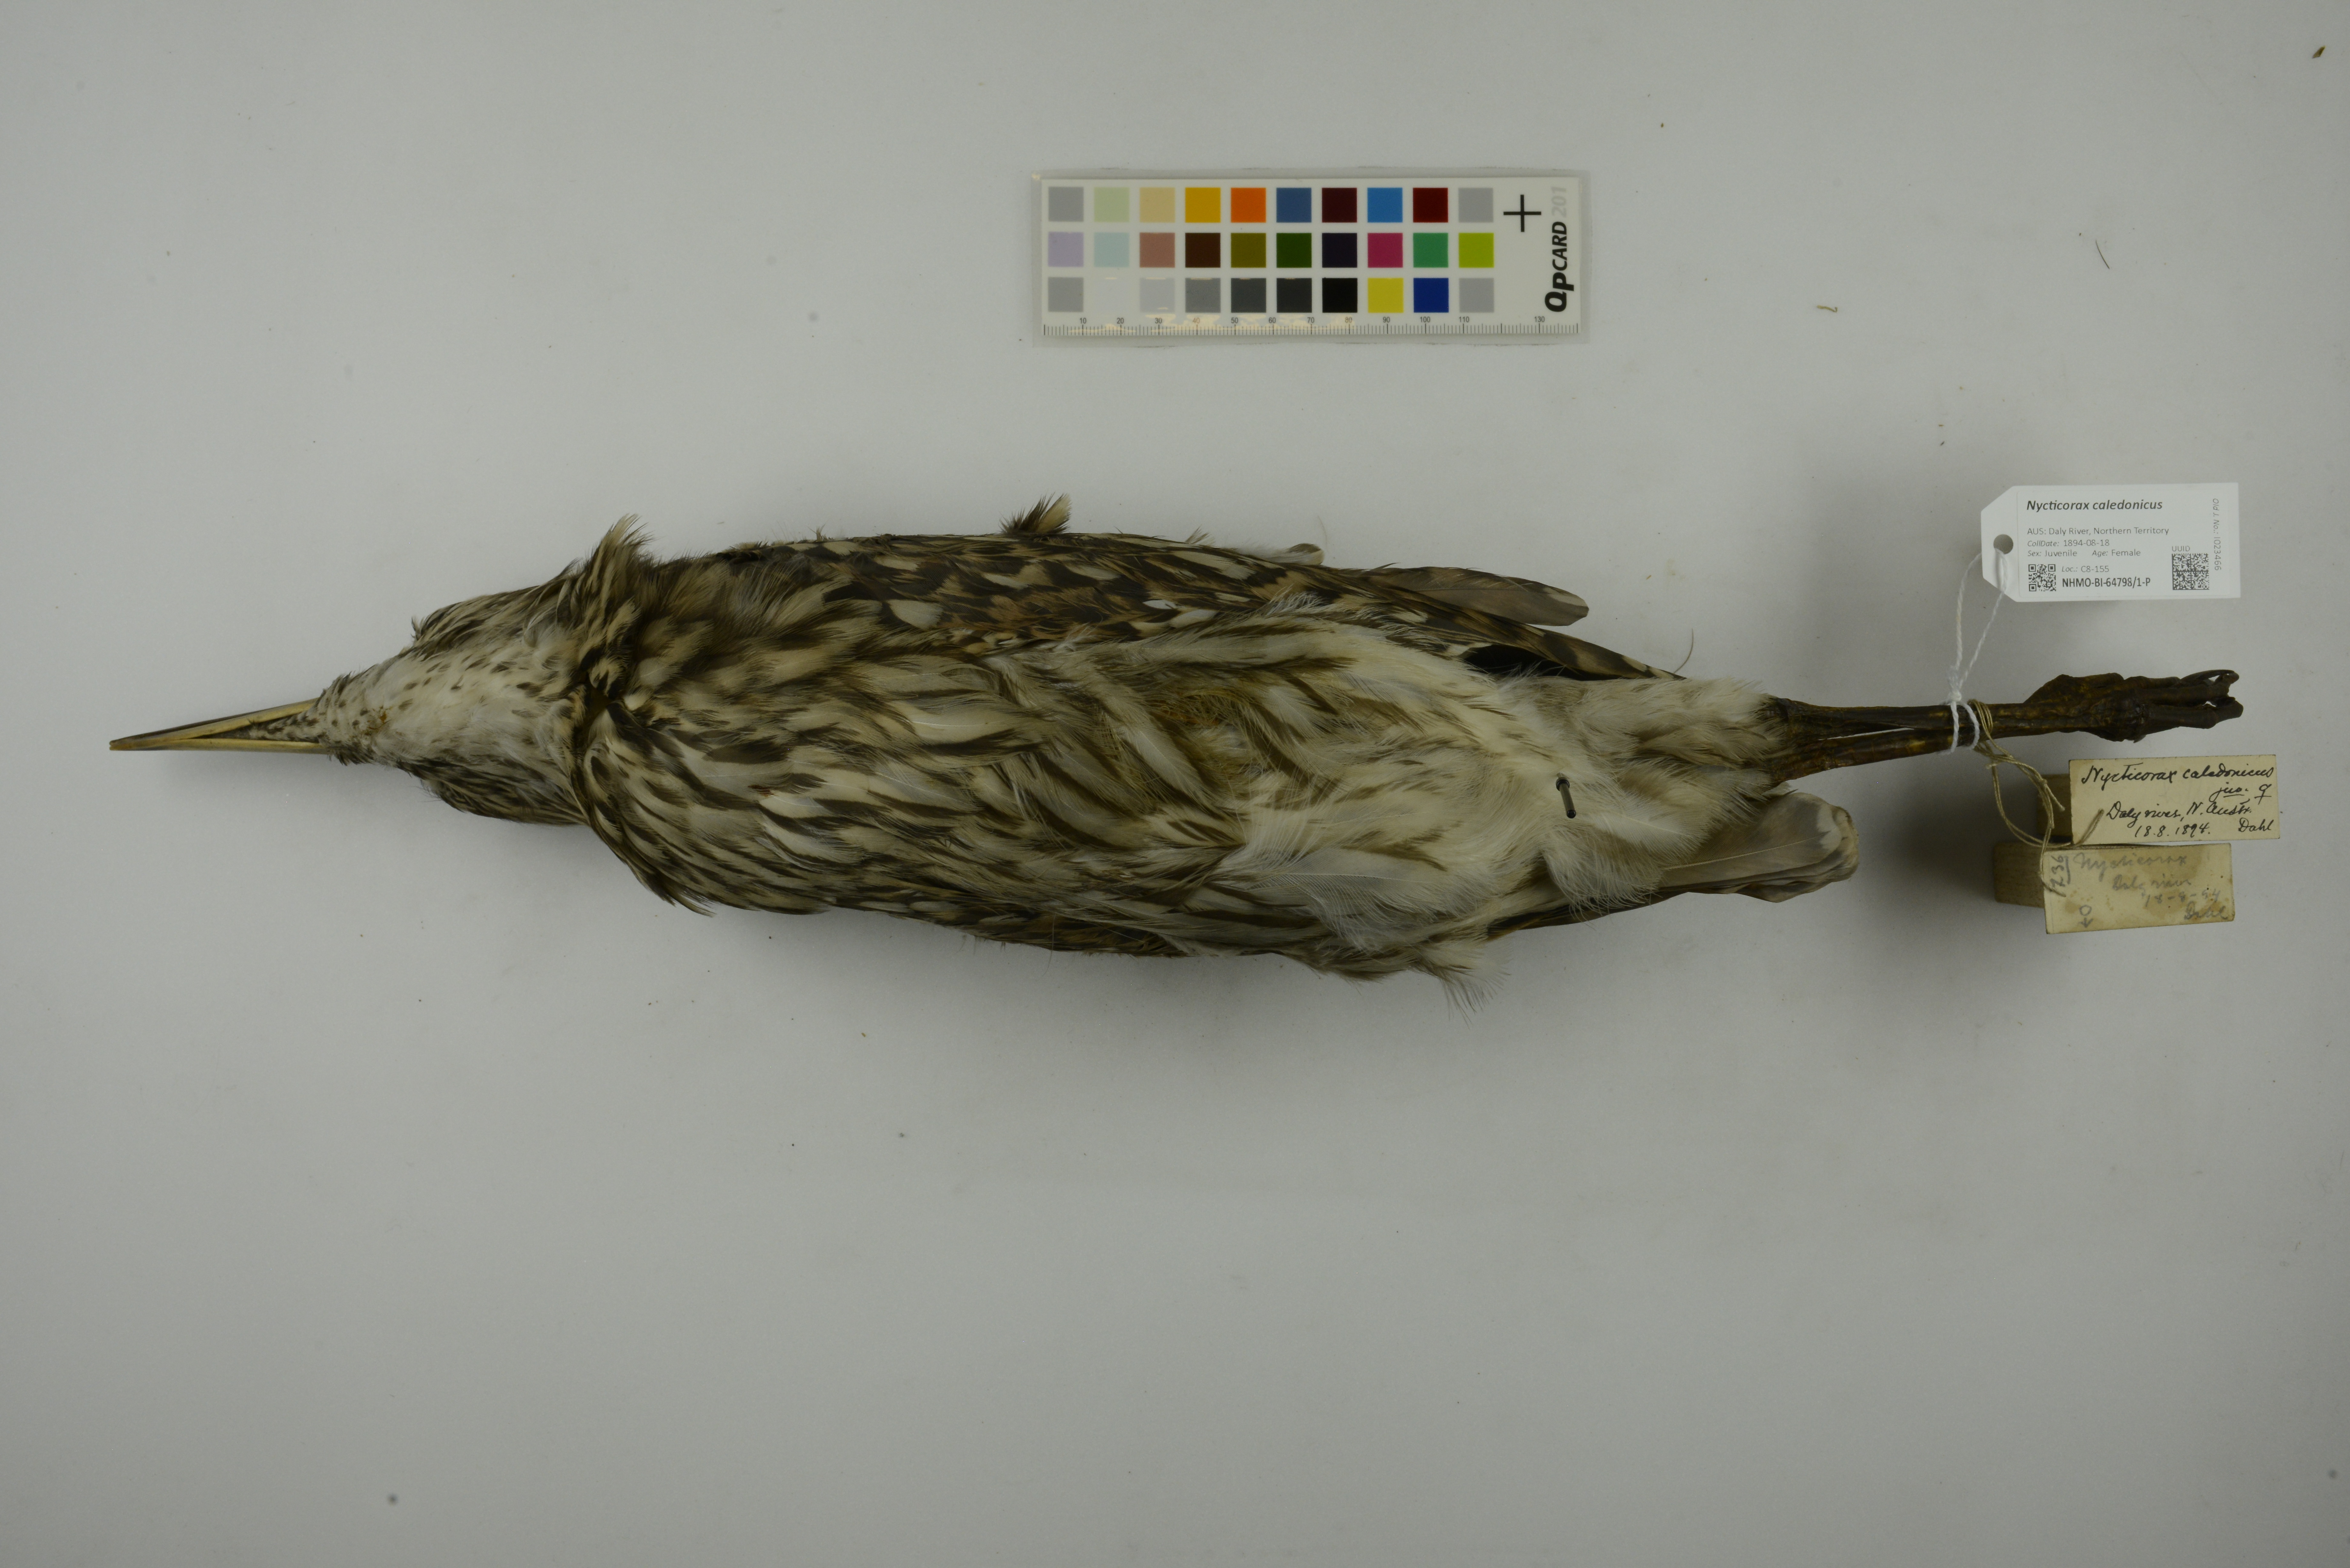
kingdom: Animalia
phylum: Chordata
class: Aves
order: Pelecaniformes
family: Ardeidae
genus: Nycticorax
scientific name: Nycticorax caledonicus
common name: Rufous night-heron
